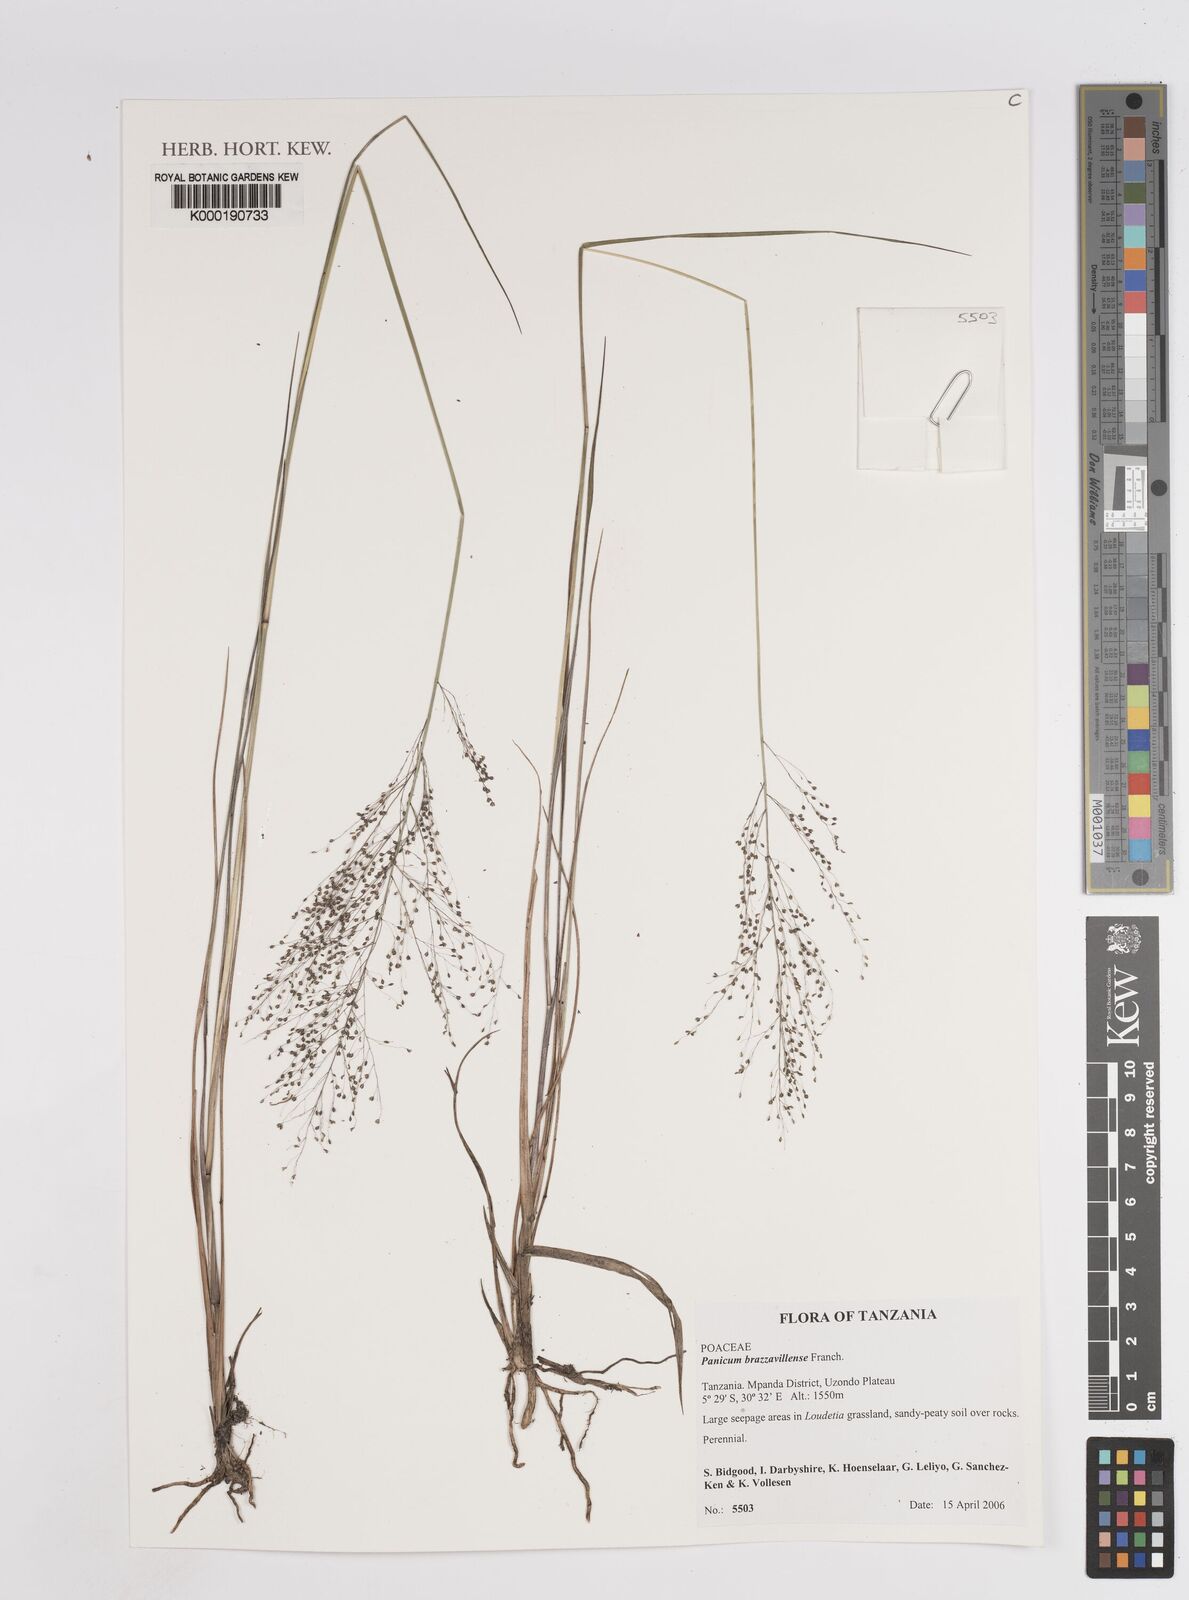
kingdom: Plantae
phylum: Tracheophyta
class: Liliopsida
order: Poales
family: Poaceae
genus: Trichanthecium
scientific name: Trichanthecium brazzavillense
